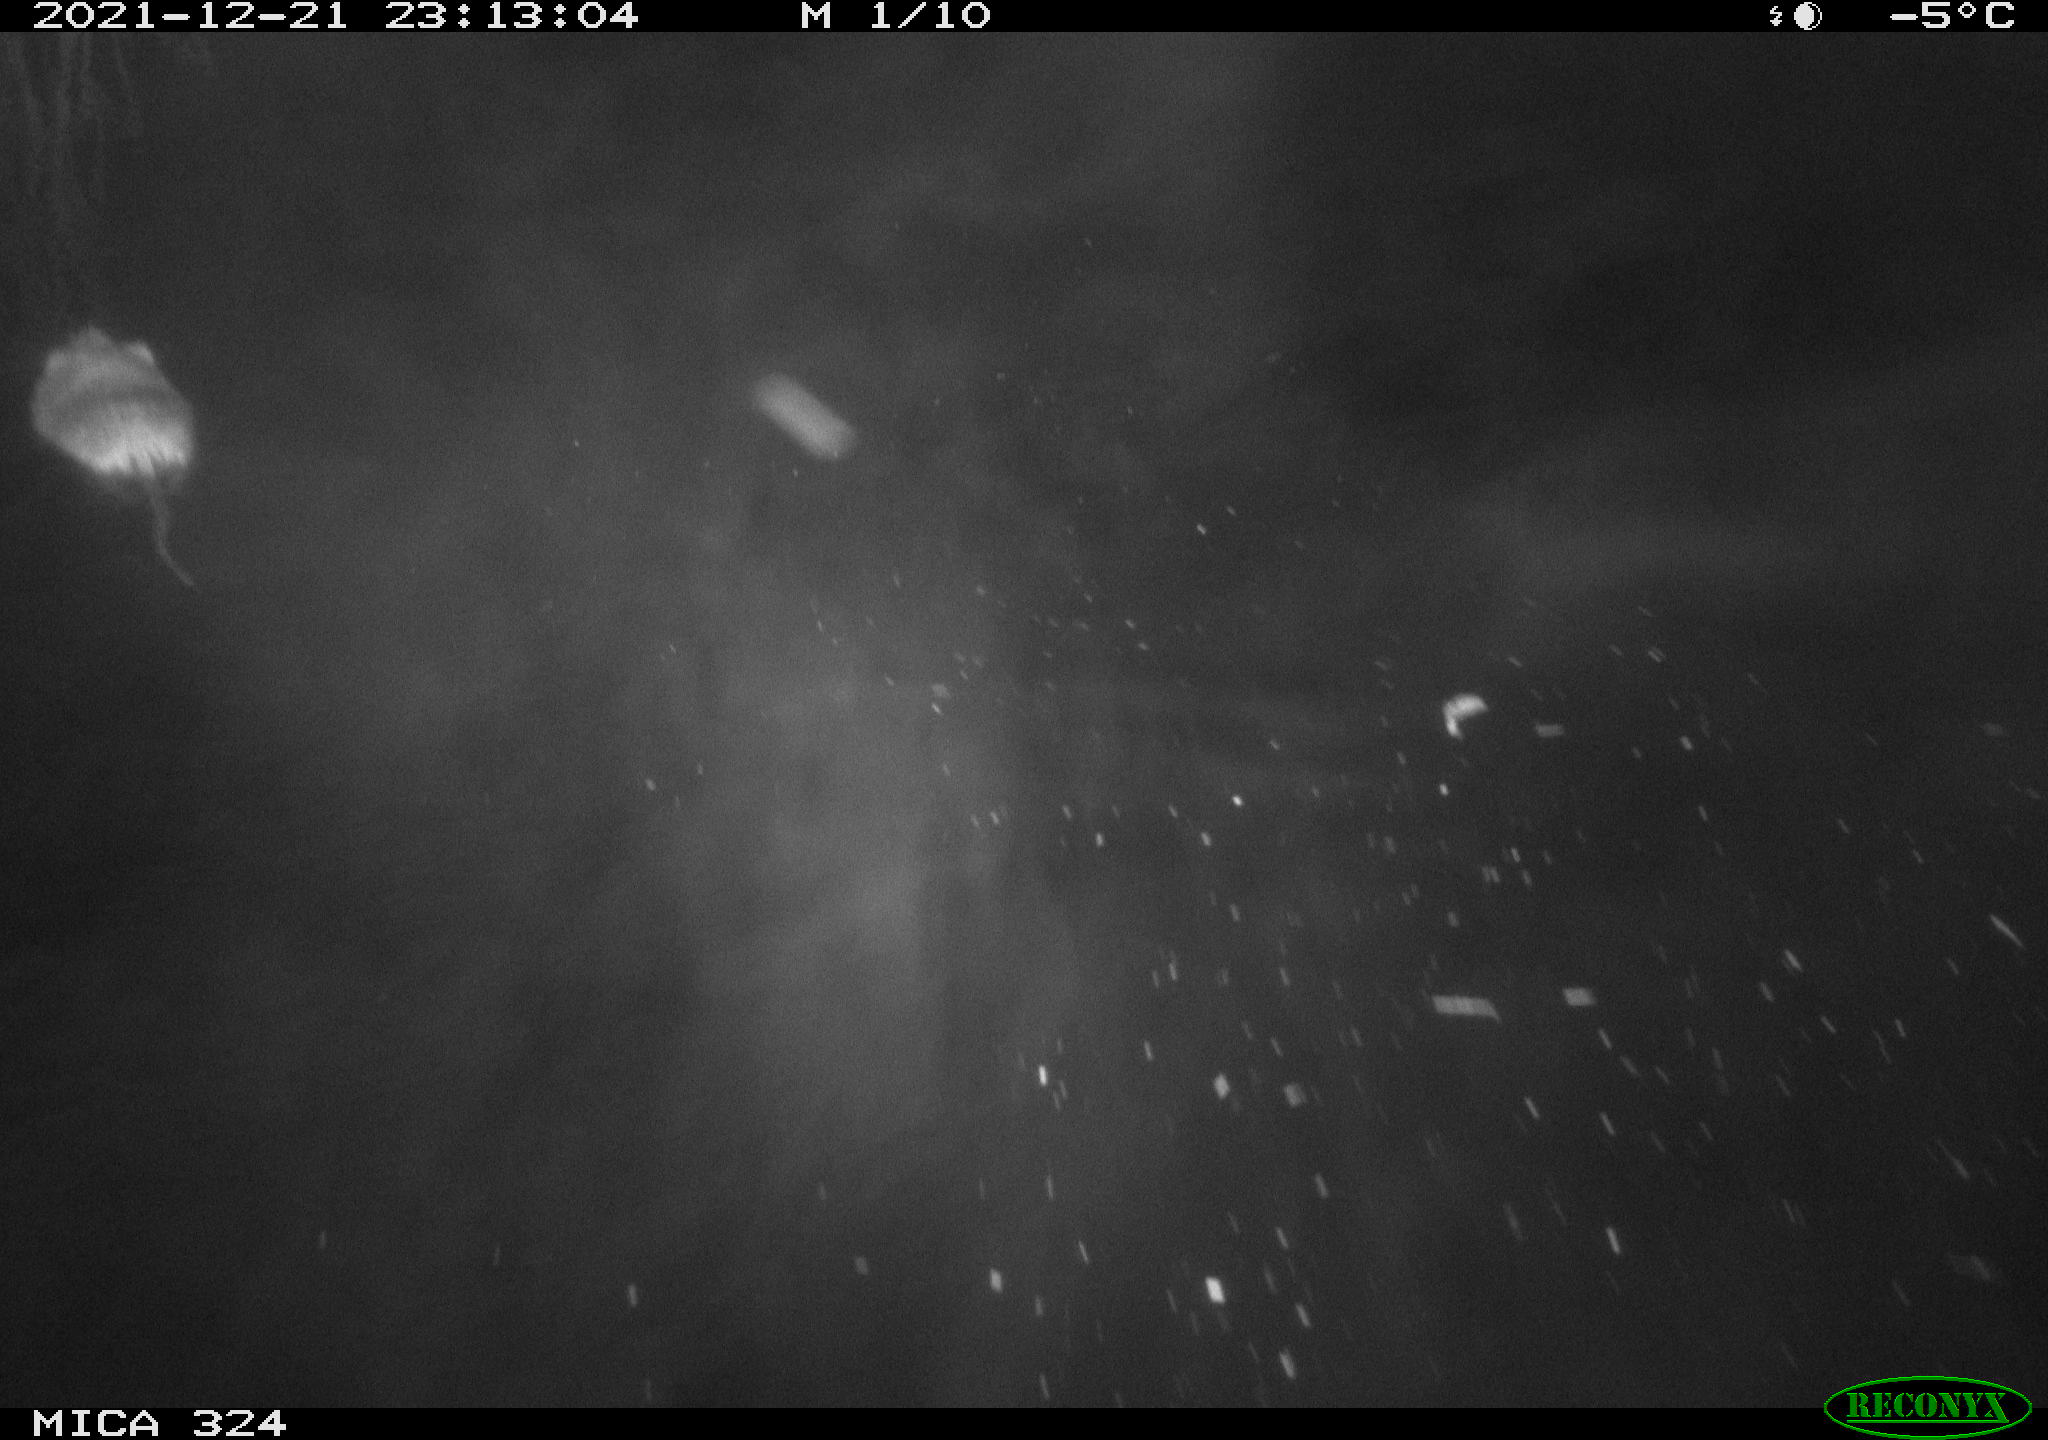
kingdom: Animalia
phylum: Chordata
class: Mammalia
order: Rodentia
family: Cricetidae
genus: Ondatra
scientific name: Ondatra zibethicus
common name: Muskrat
